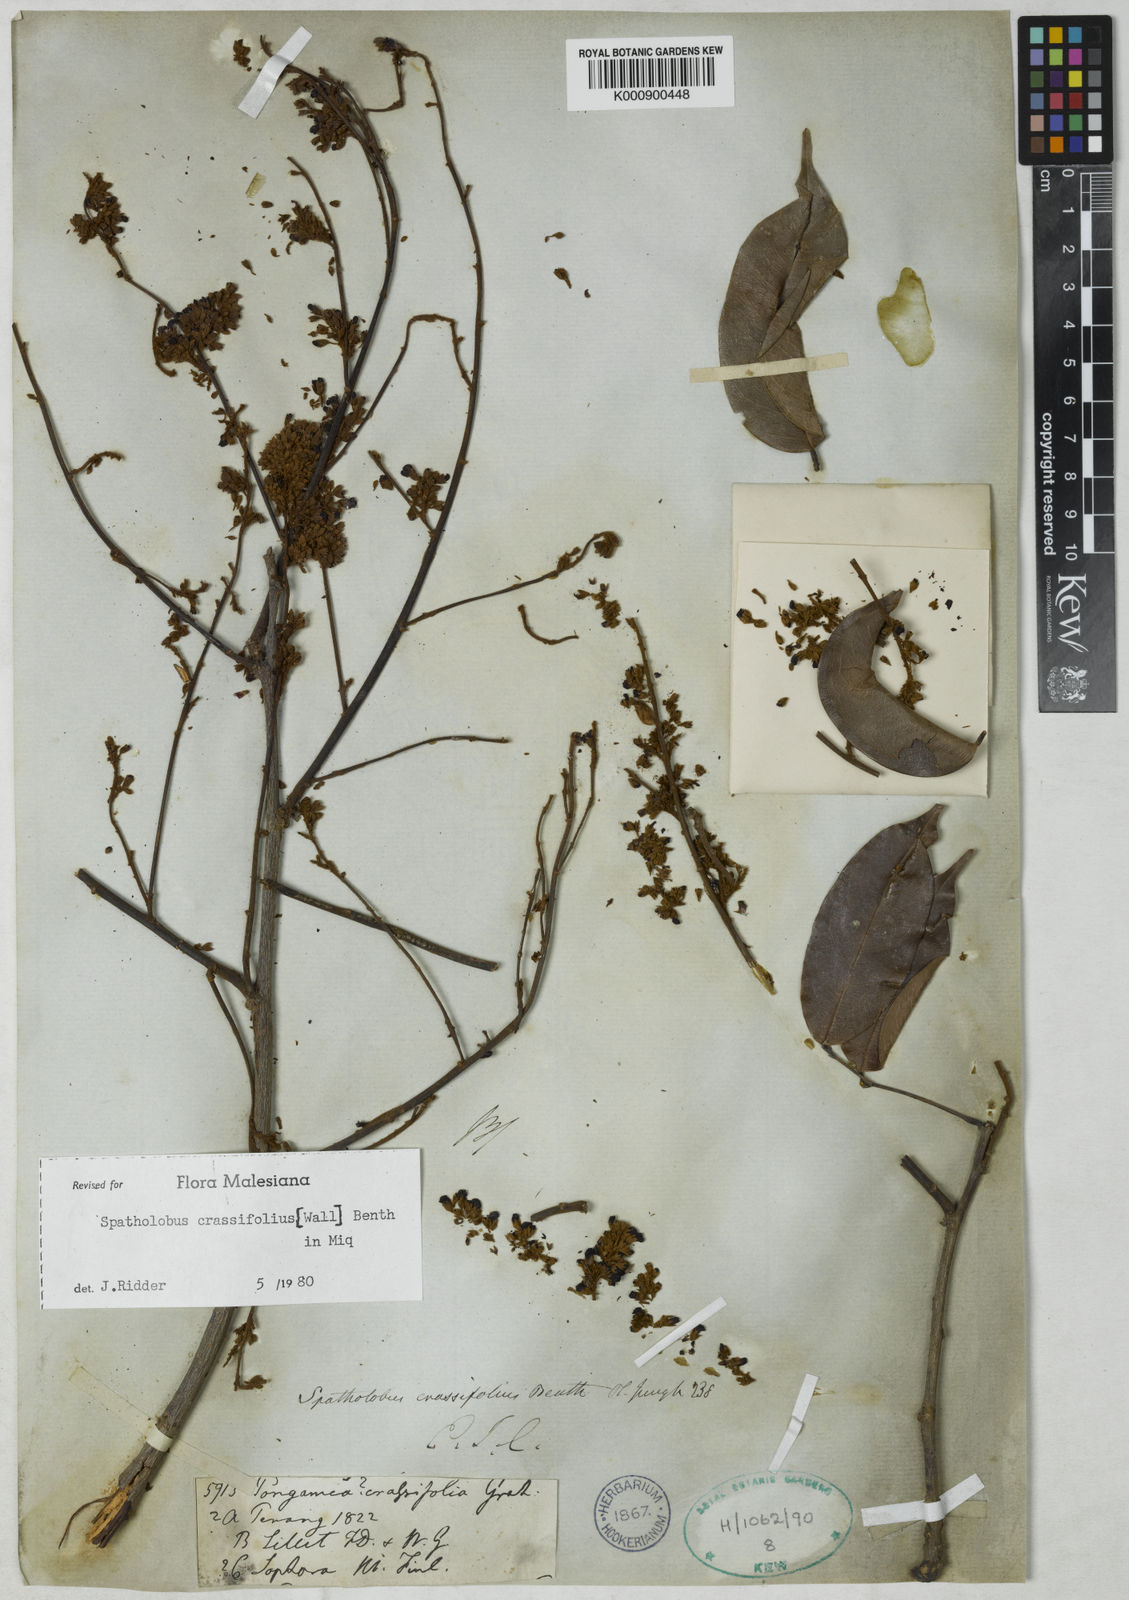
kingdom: Plantae
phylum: Tracheophyta
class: Magnoliopsida
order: Fabales
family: Fabaceae
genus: Spatholobus
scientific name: Spatholobus crassifolius
